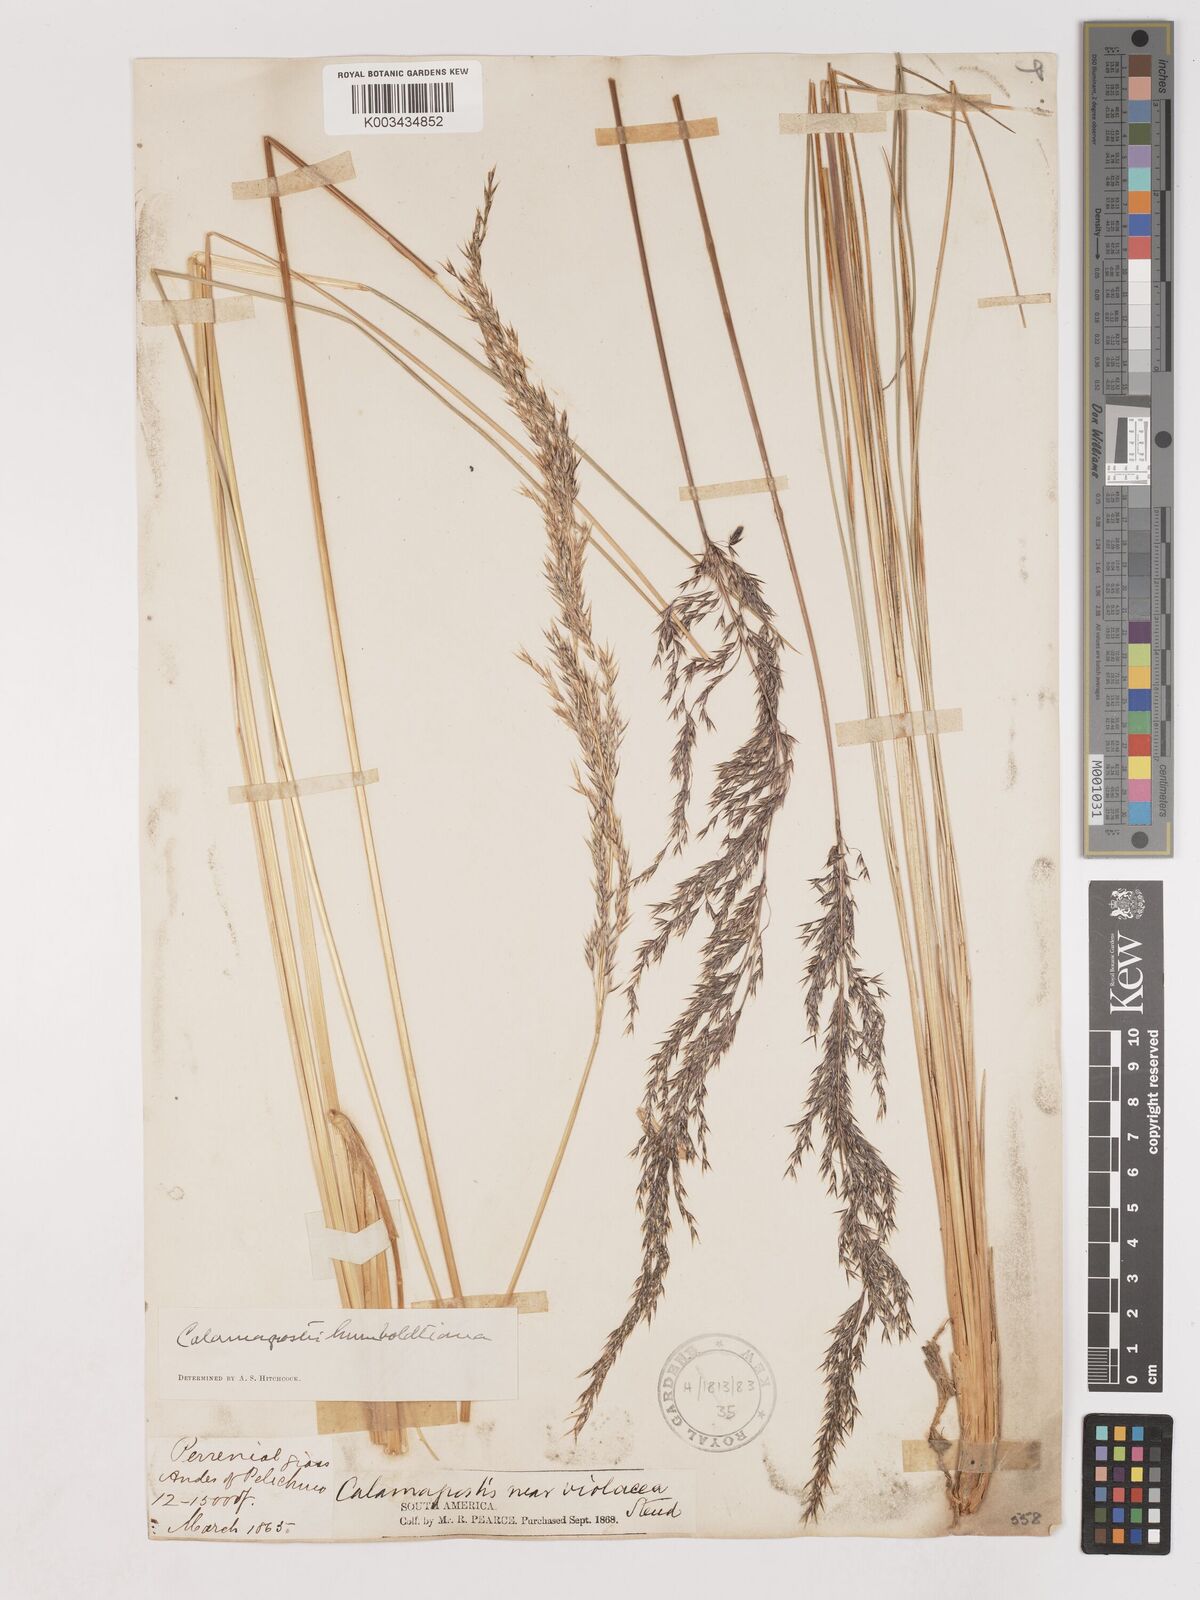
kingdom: Plantae
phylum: Tracheophyta
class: Liliopsida
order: Poales
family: Poaceae
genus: Cinnagrostis
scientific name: Cinnagrostis recta
